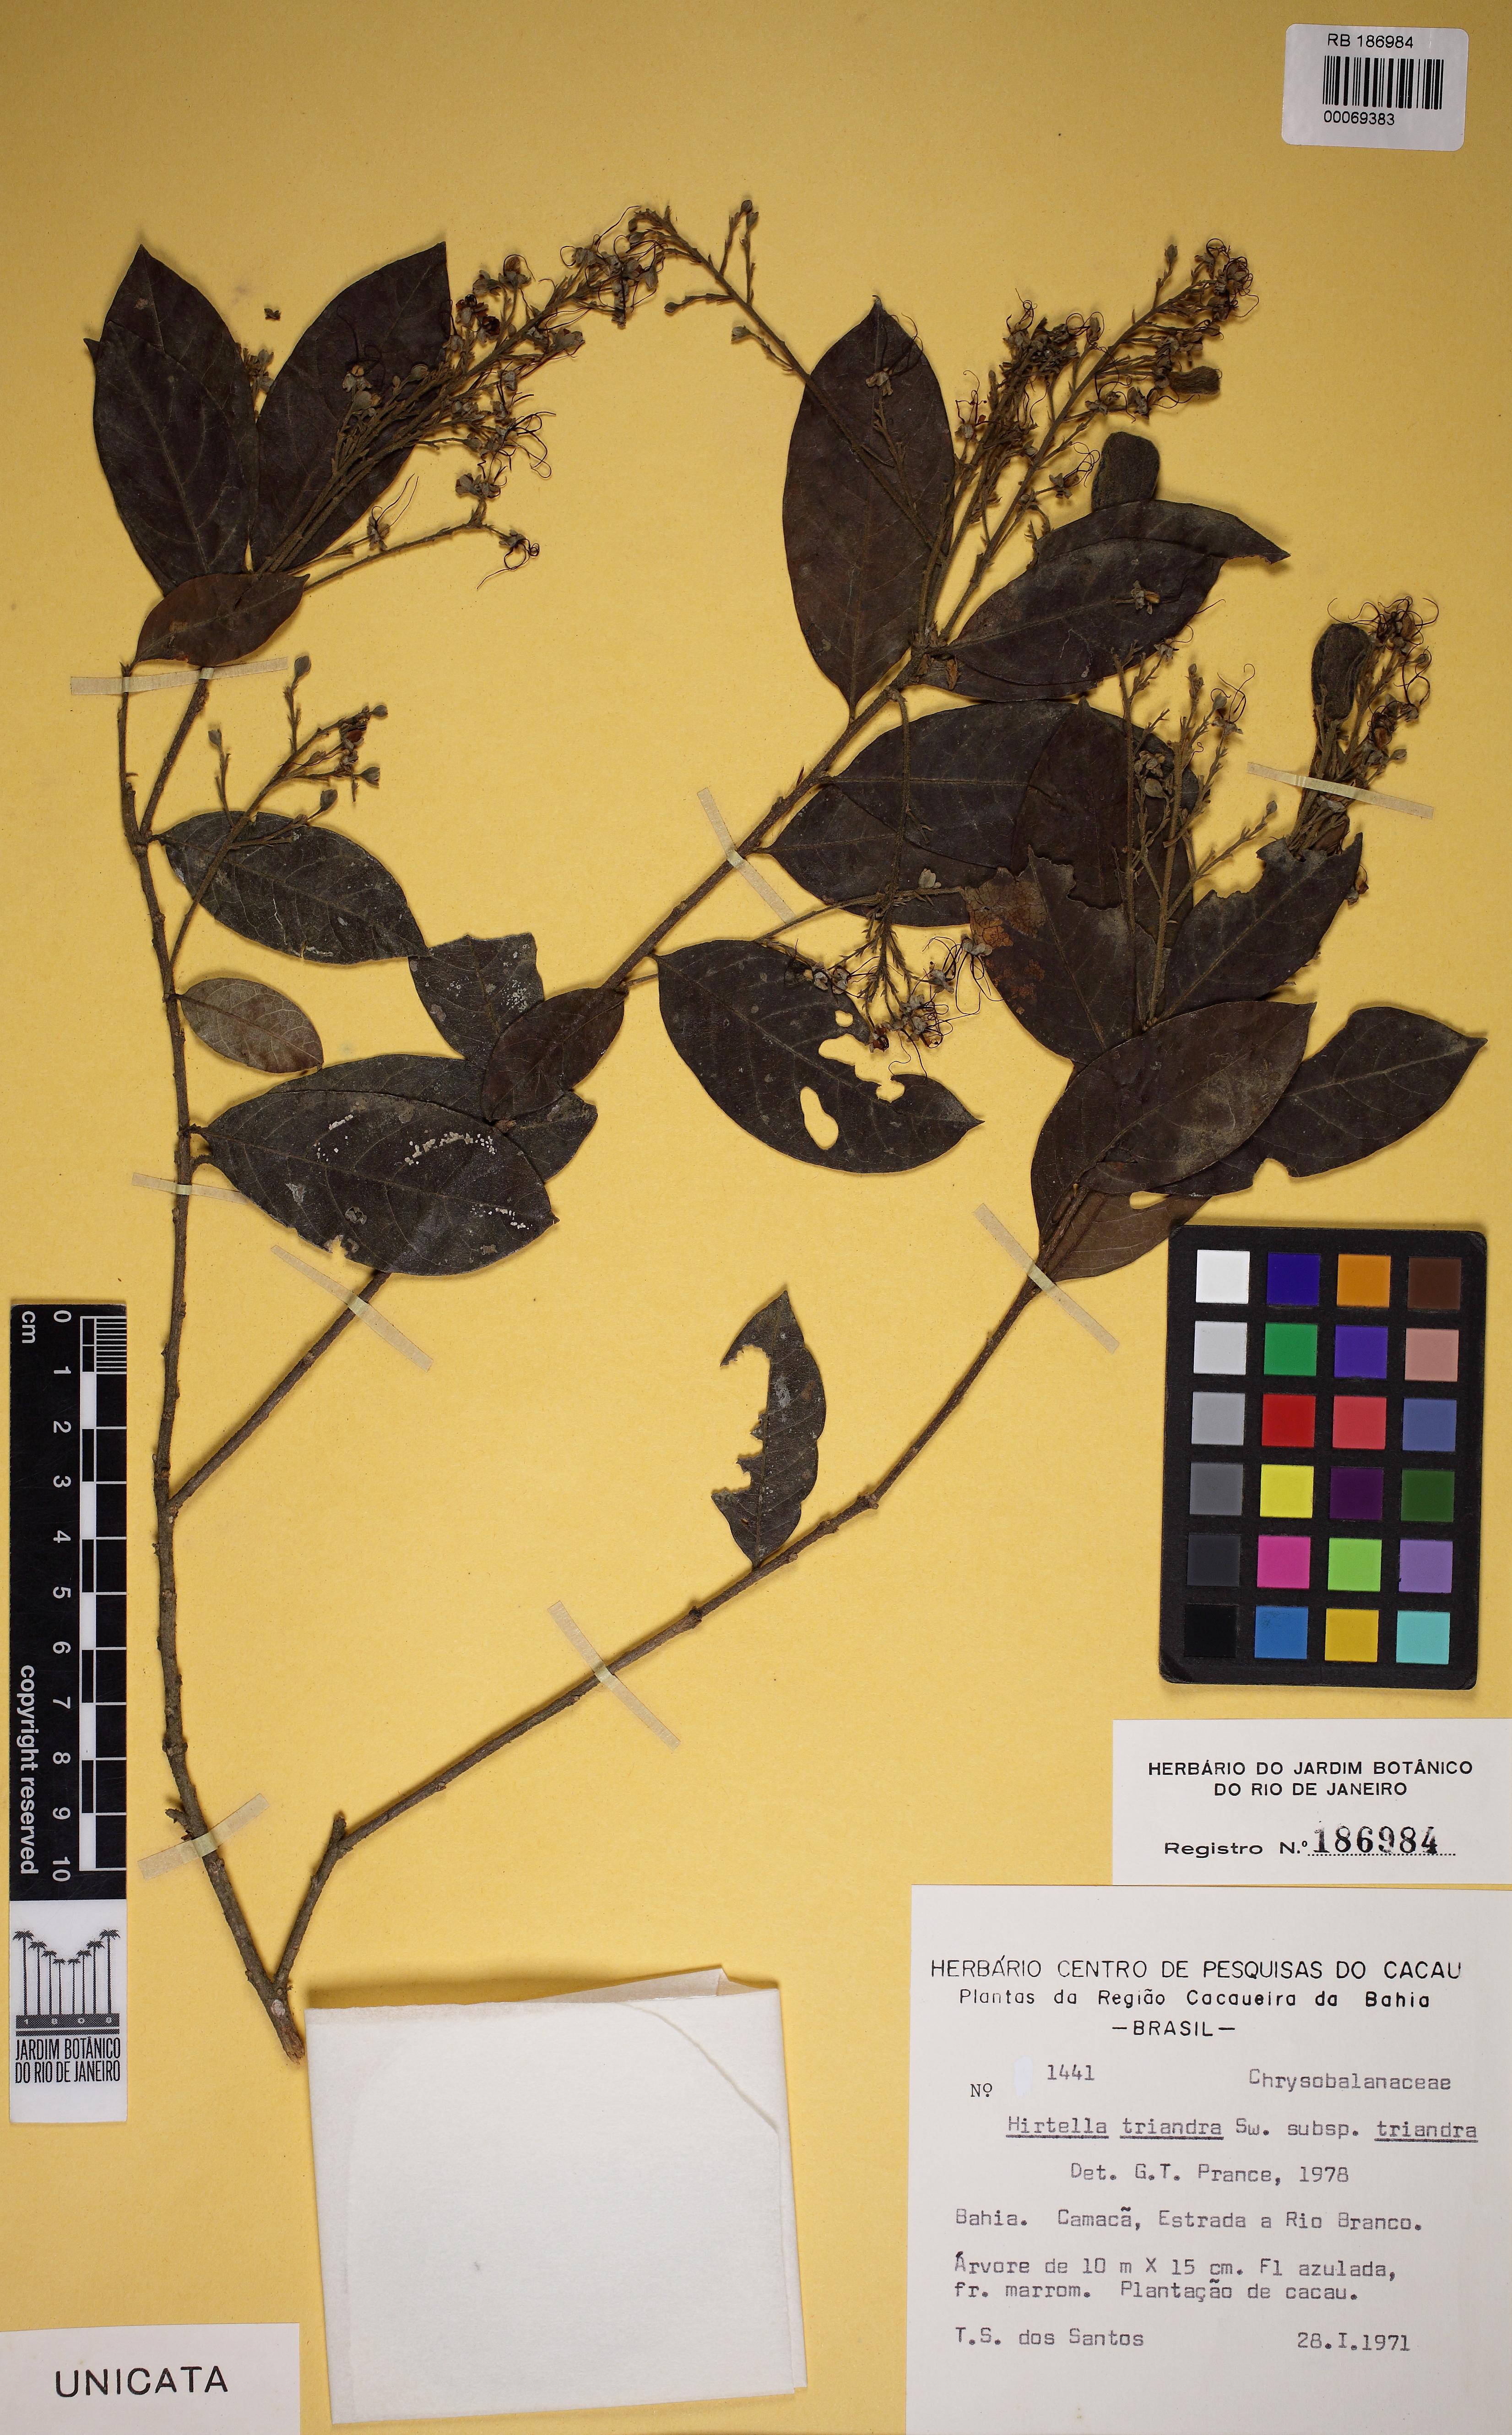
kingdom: Plantae
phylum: Tracheophyta
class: Magnoliopsida
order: Malpighiales
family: Chrysobalanaceae
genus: Hirtella
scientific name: Hirtella triandra
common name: Hairy plum
